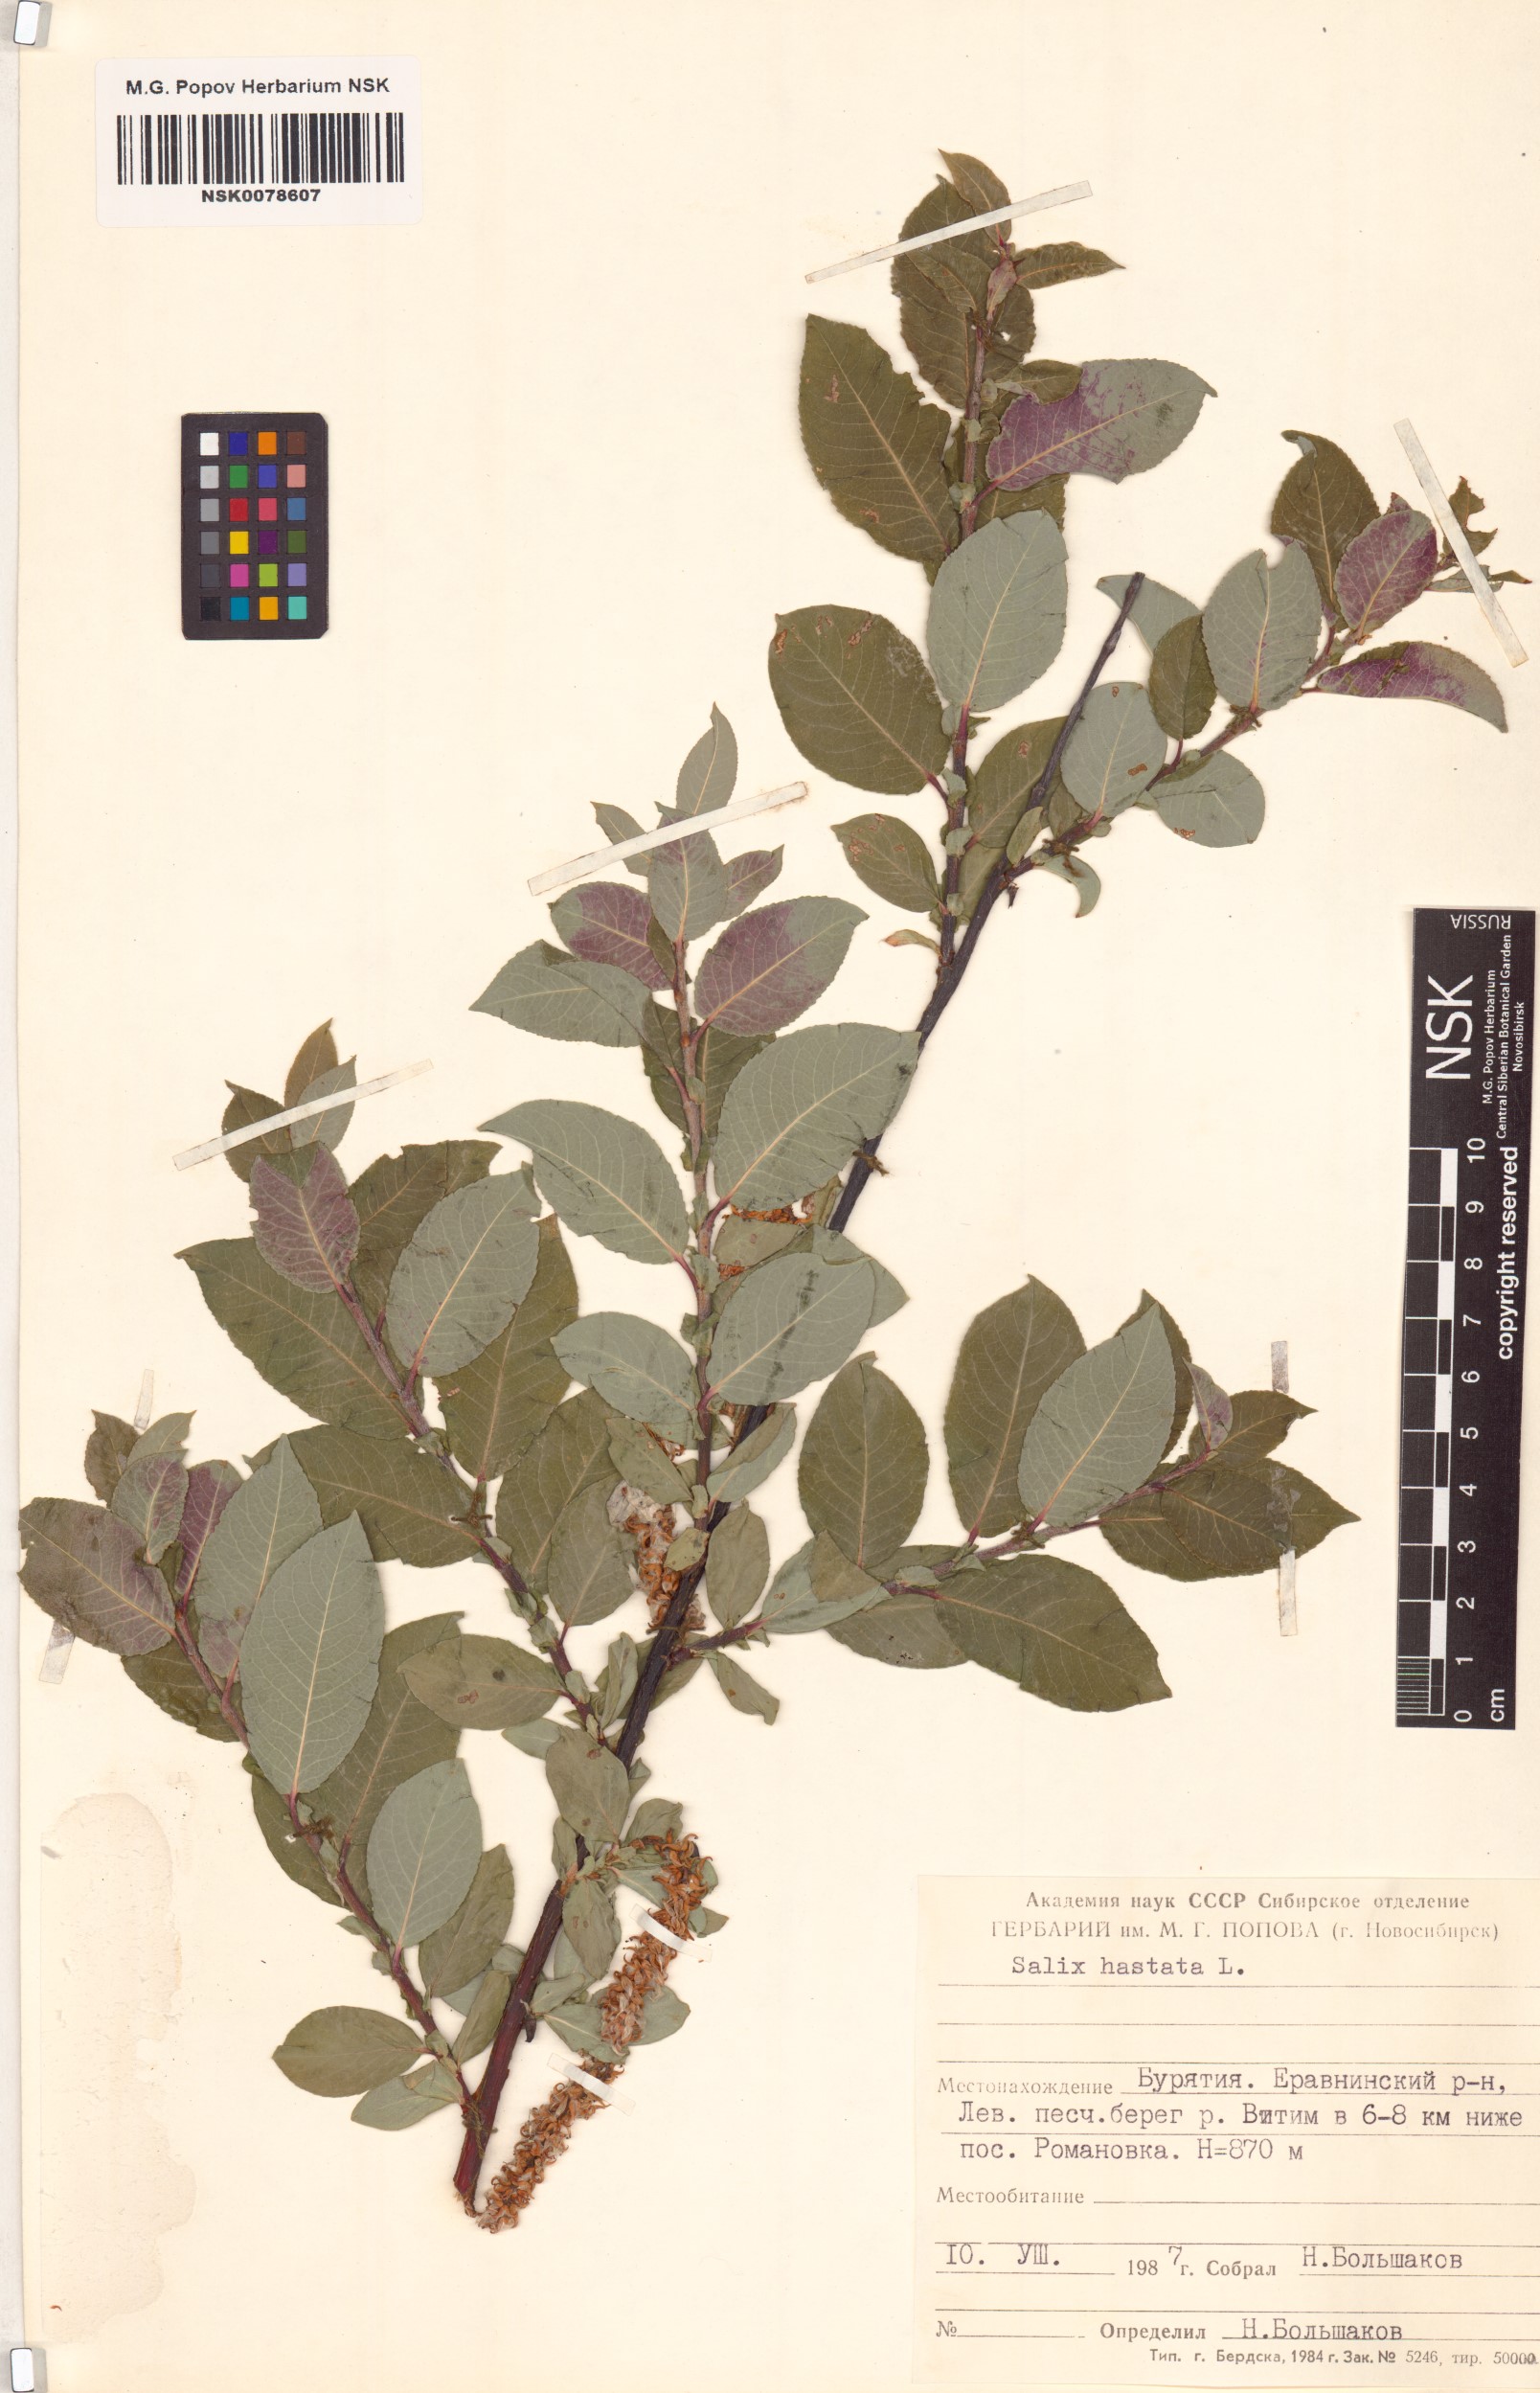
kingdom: Plantae
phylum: Tracheophyta
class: Magnoliopsida
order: Malpighiales
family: Salicaceae
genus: Salix
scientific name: Salix hastata
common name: Halberd willow
